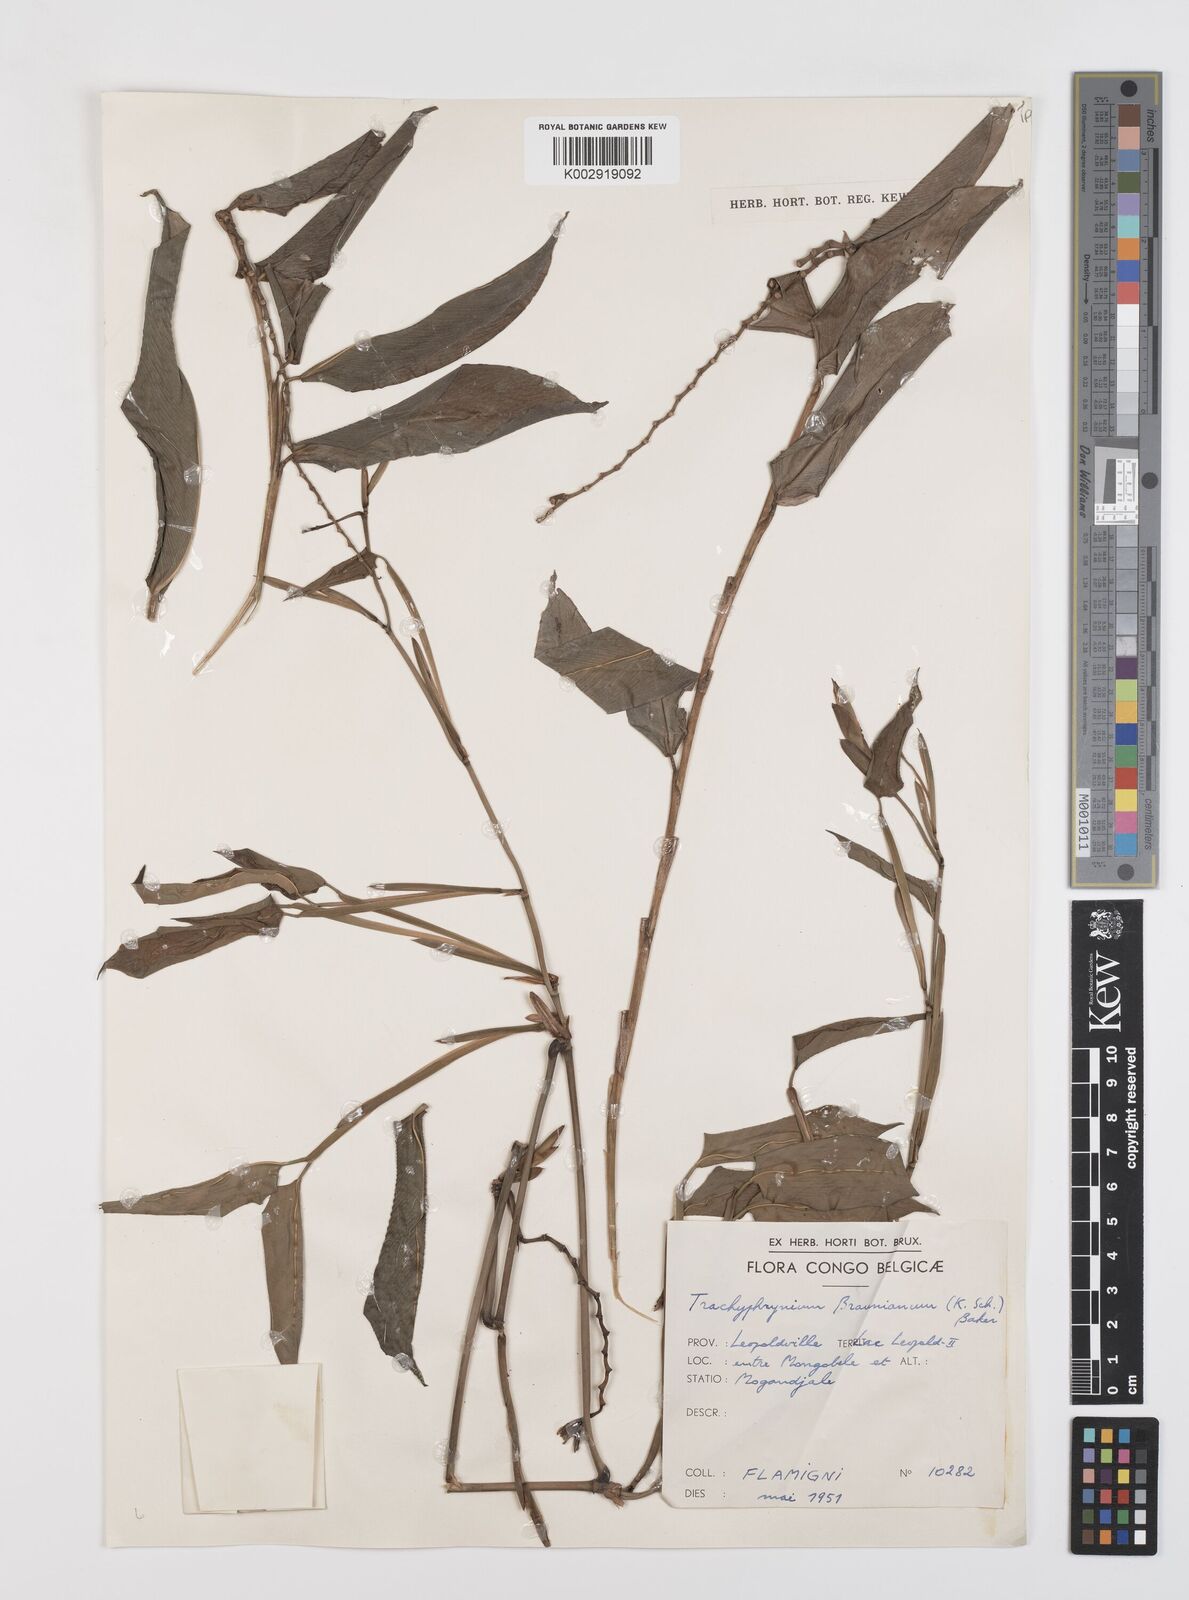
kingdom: Plantae
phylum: Tracheophyta
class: Liliopsida
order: Zingiberales
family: Marantaceae
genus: Trachyphrynium
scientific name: Trachyphrynium braunianum
